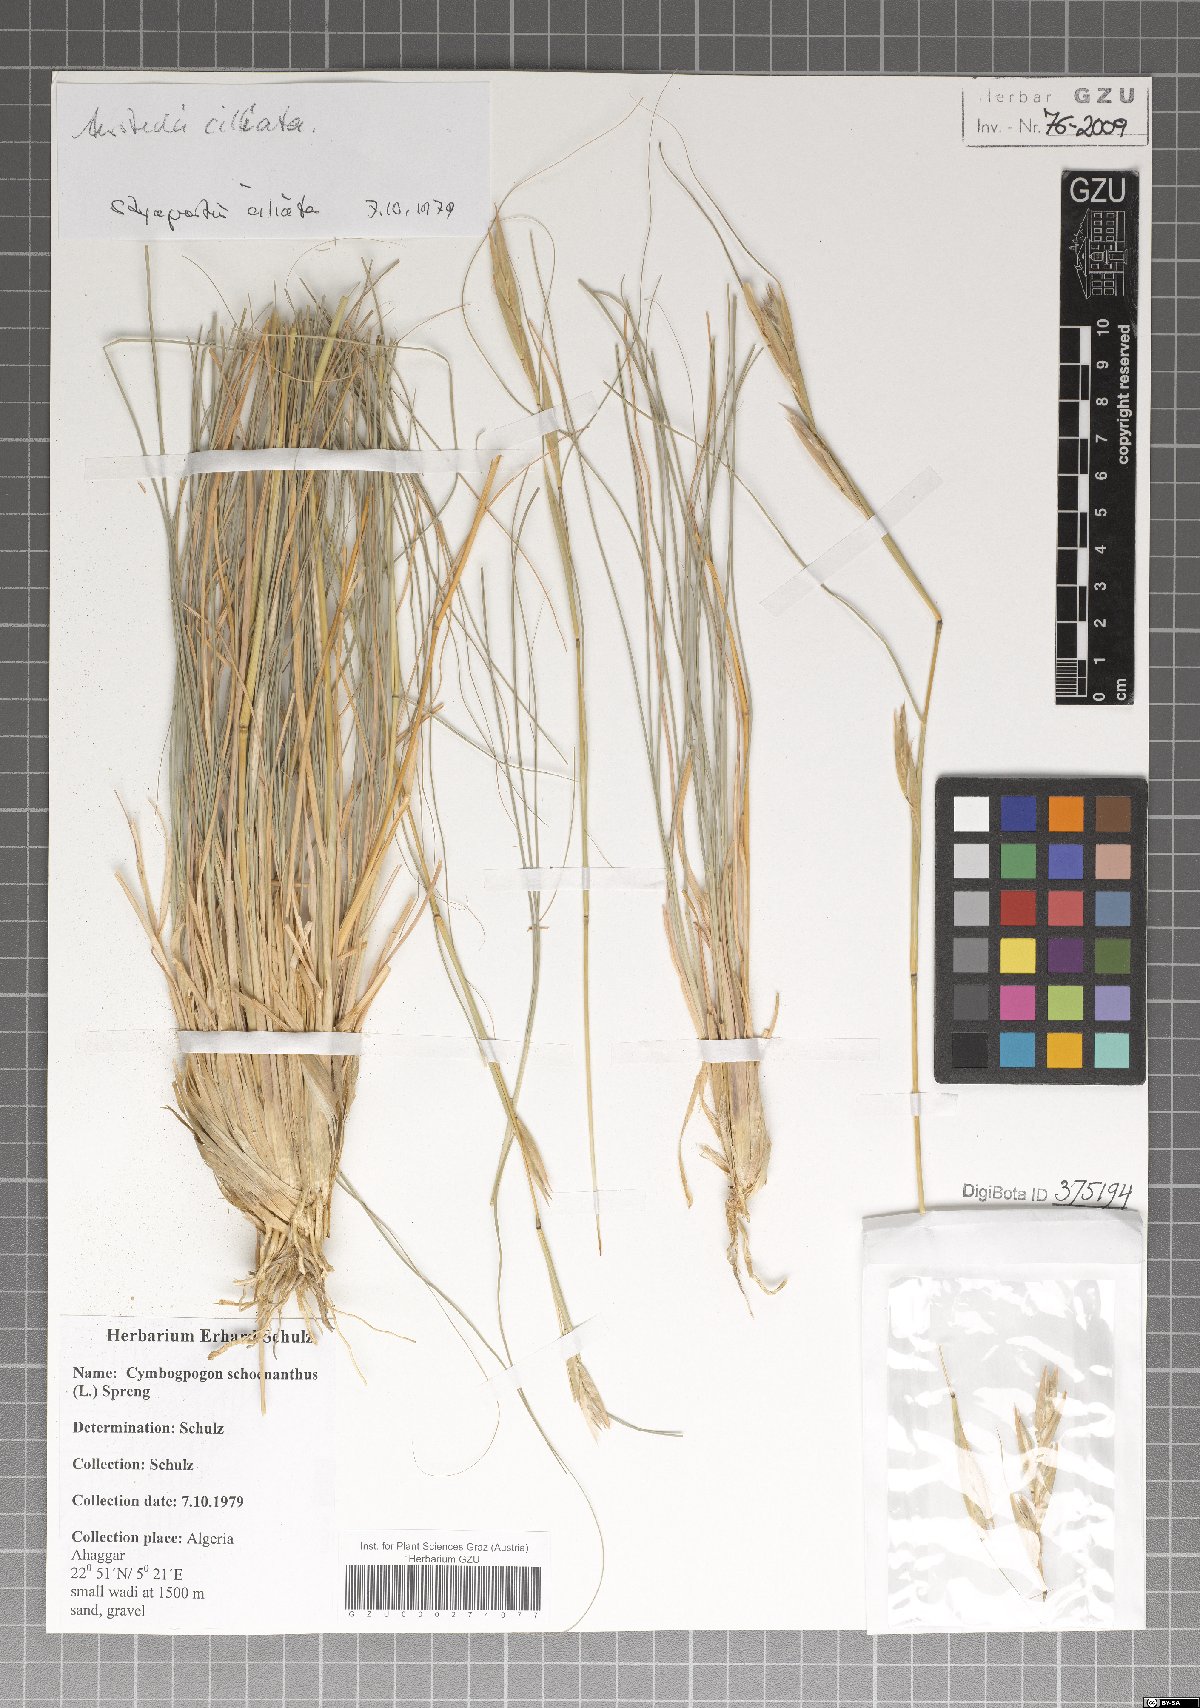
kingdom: Plantae
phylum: Tracheophyta
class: Liliopsida
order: Poales
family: Poaceae
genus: Cymbopogon
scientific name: Cymbopogon schoenanthus
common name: Geranium grass
